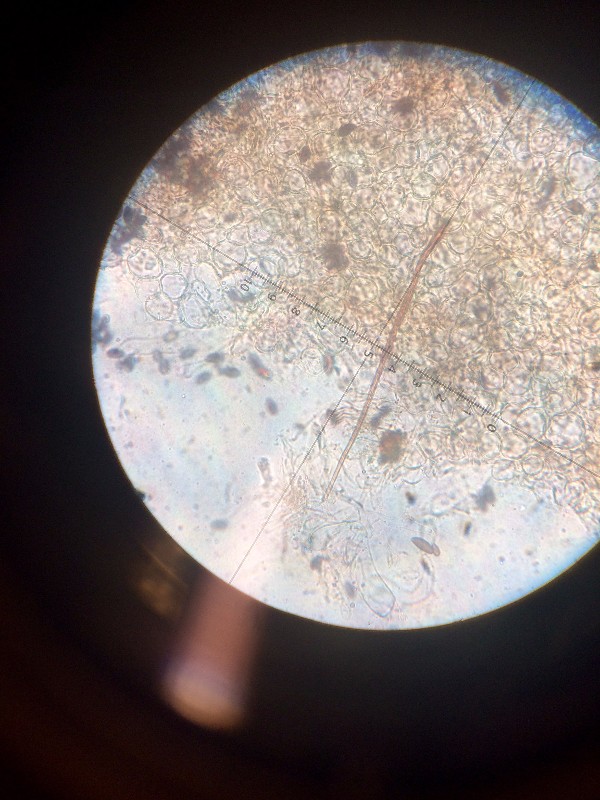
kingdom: Fungi
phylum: Basidiomycota
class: Agaricomycetes
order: Agaricales
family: Psathyrellaceae
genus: Parasola
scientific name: Parasola conopilea
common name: kegle-hjulhat
